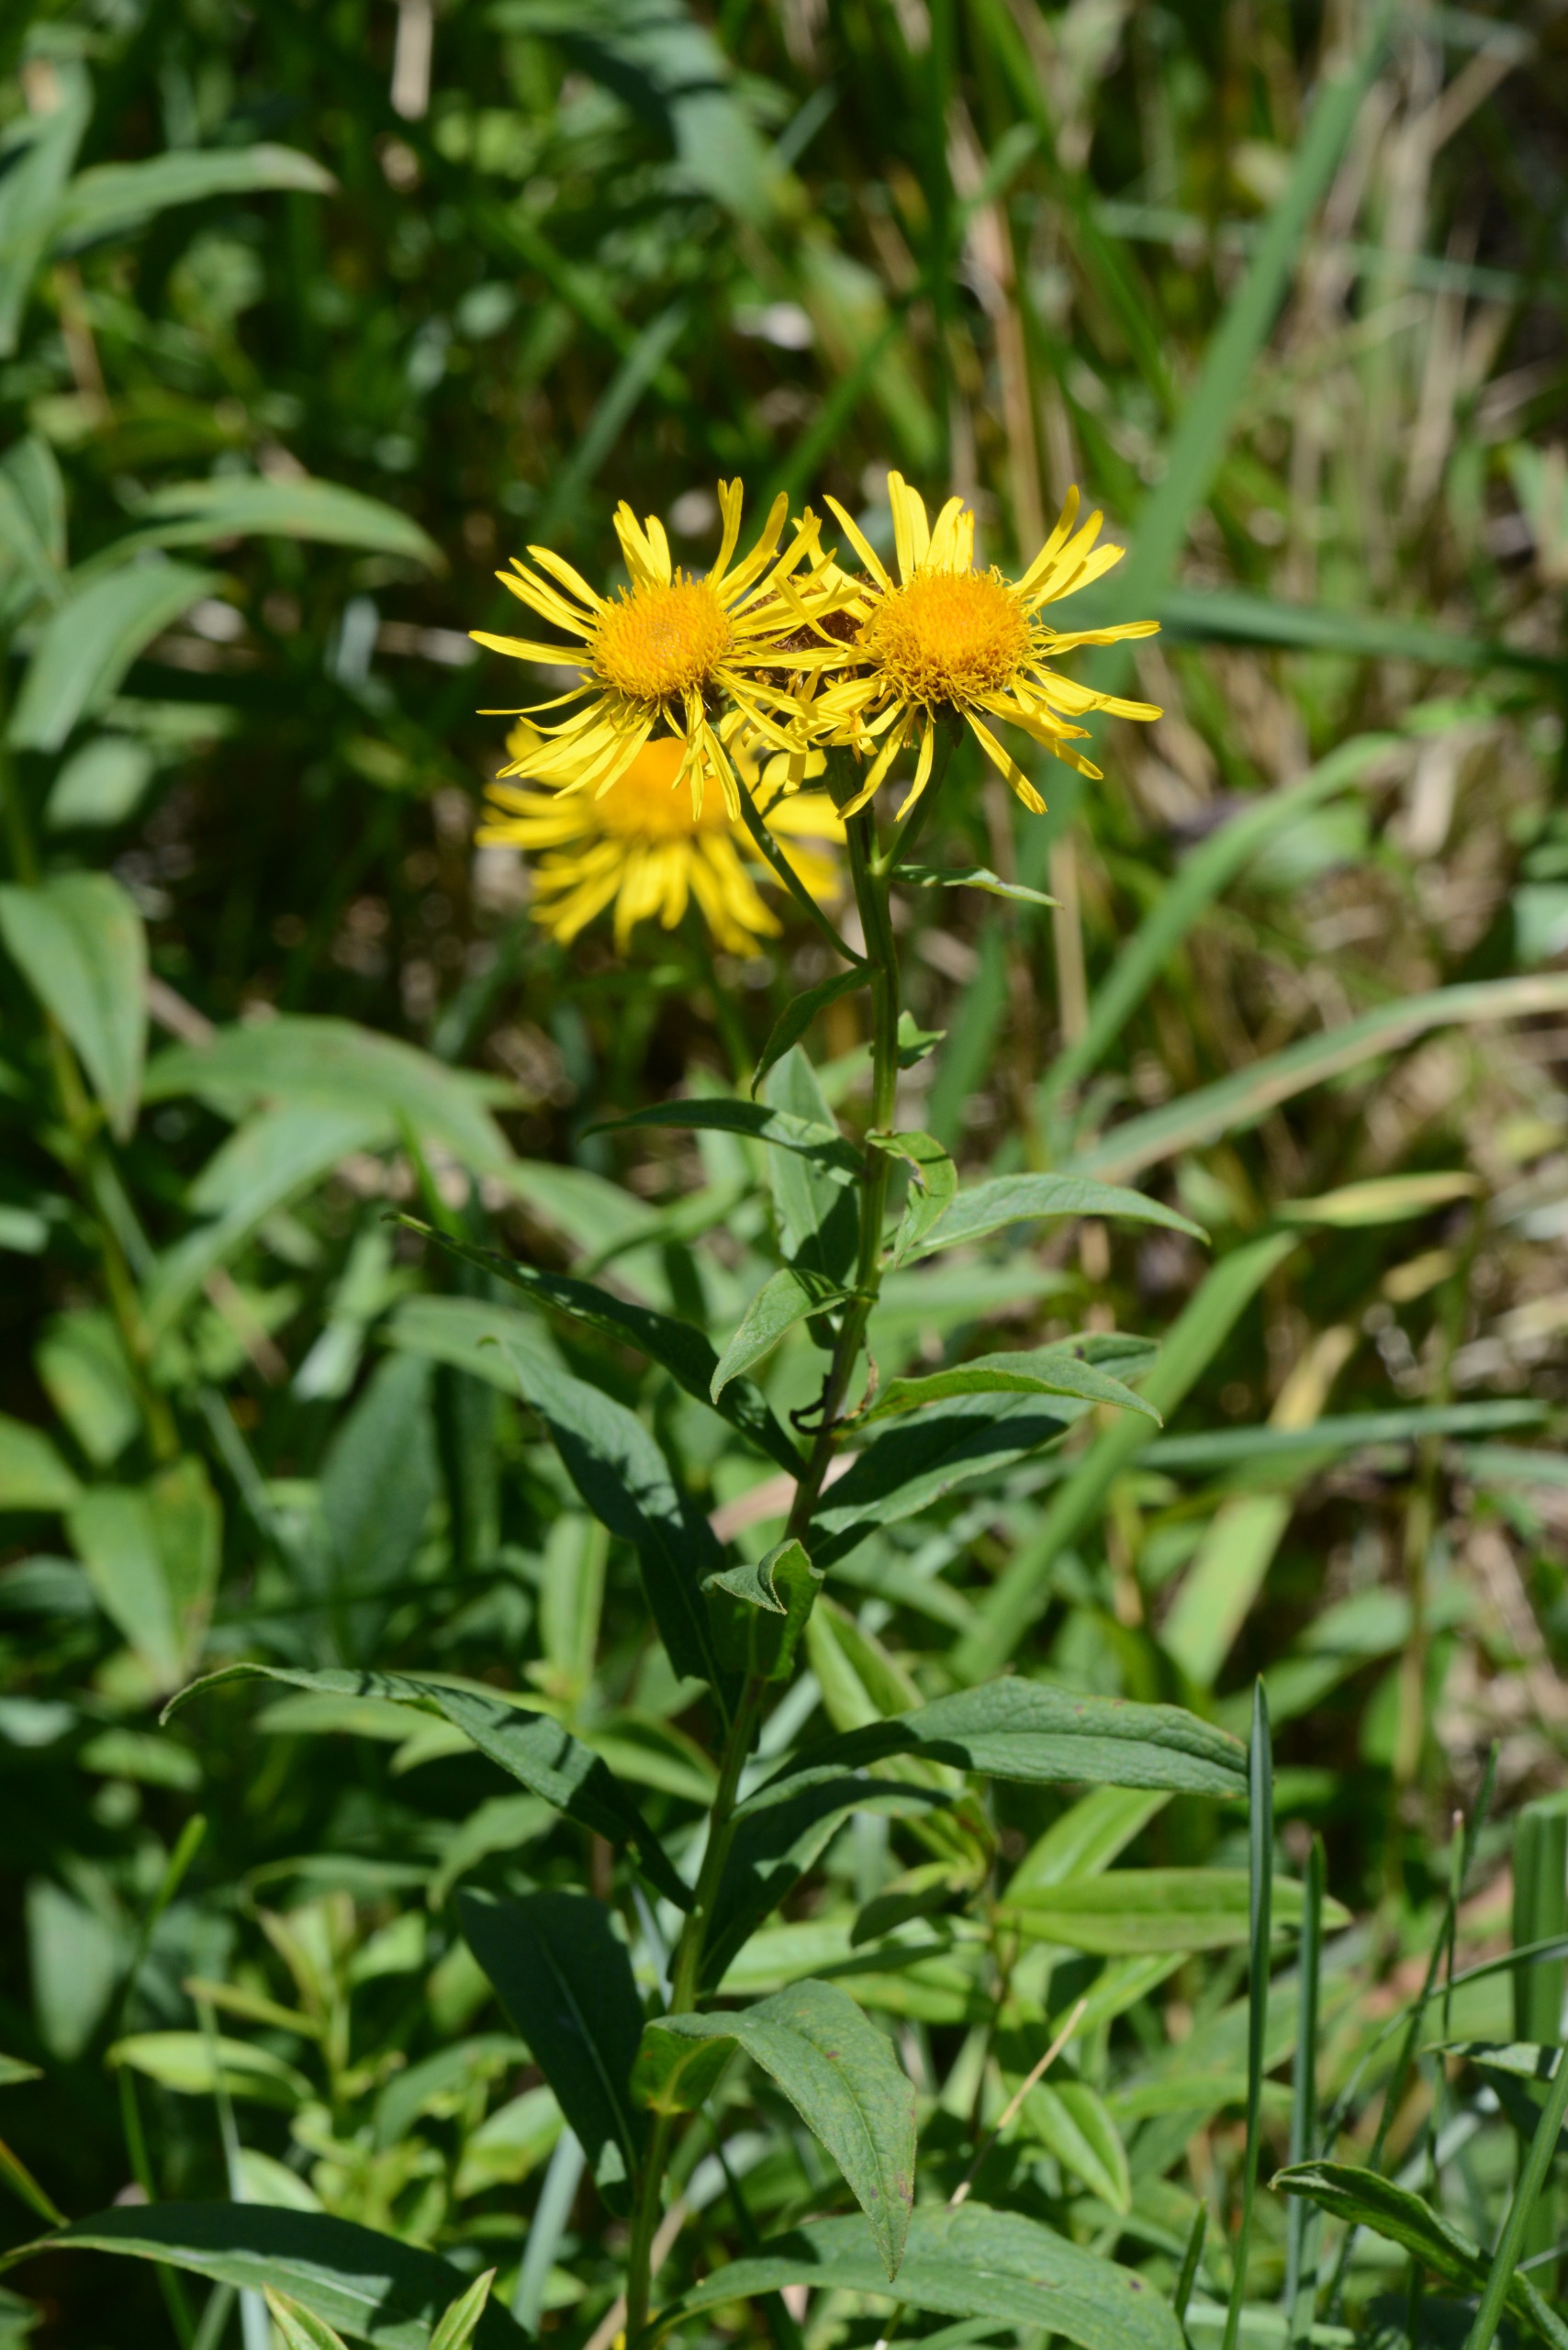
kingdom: Plantae
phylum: Tracheophyta
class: Magnoliopsida
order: Asterales
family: Asteraceae
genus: Pentanema
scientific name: Pentanema salicinum
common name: Pile-alant
